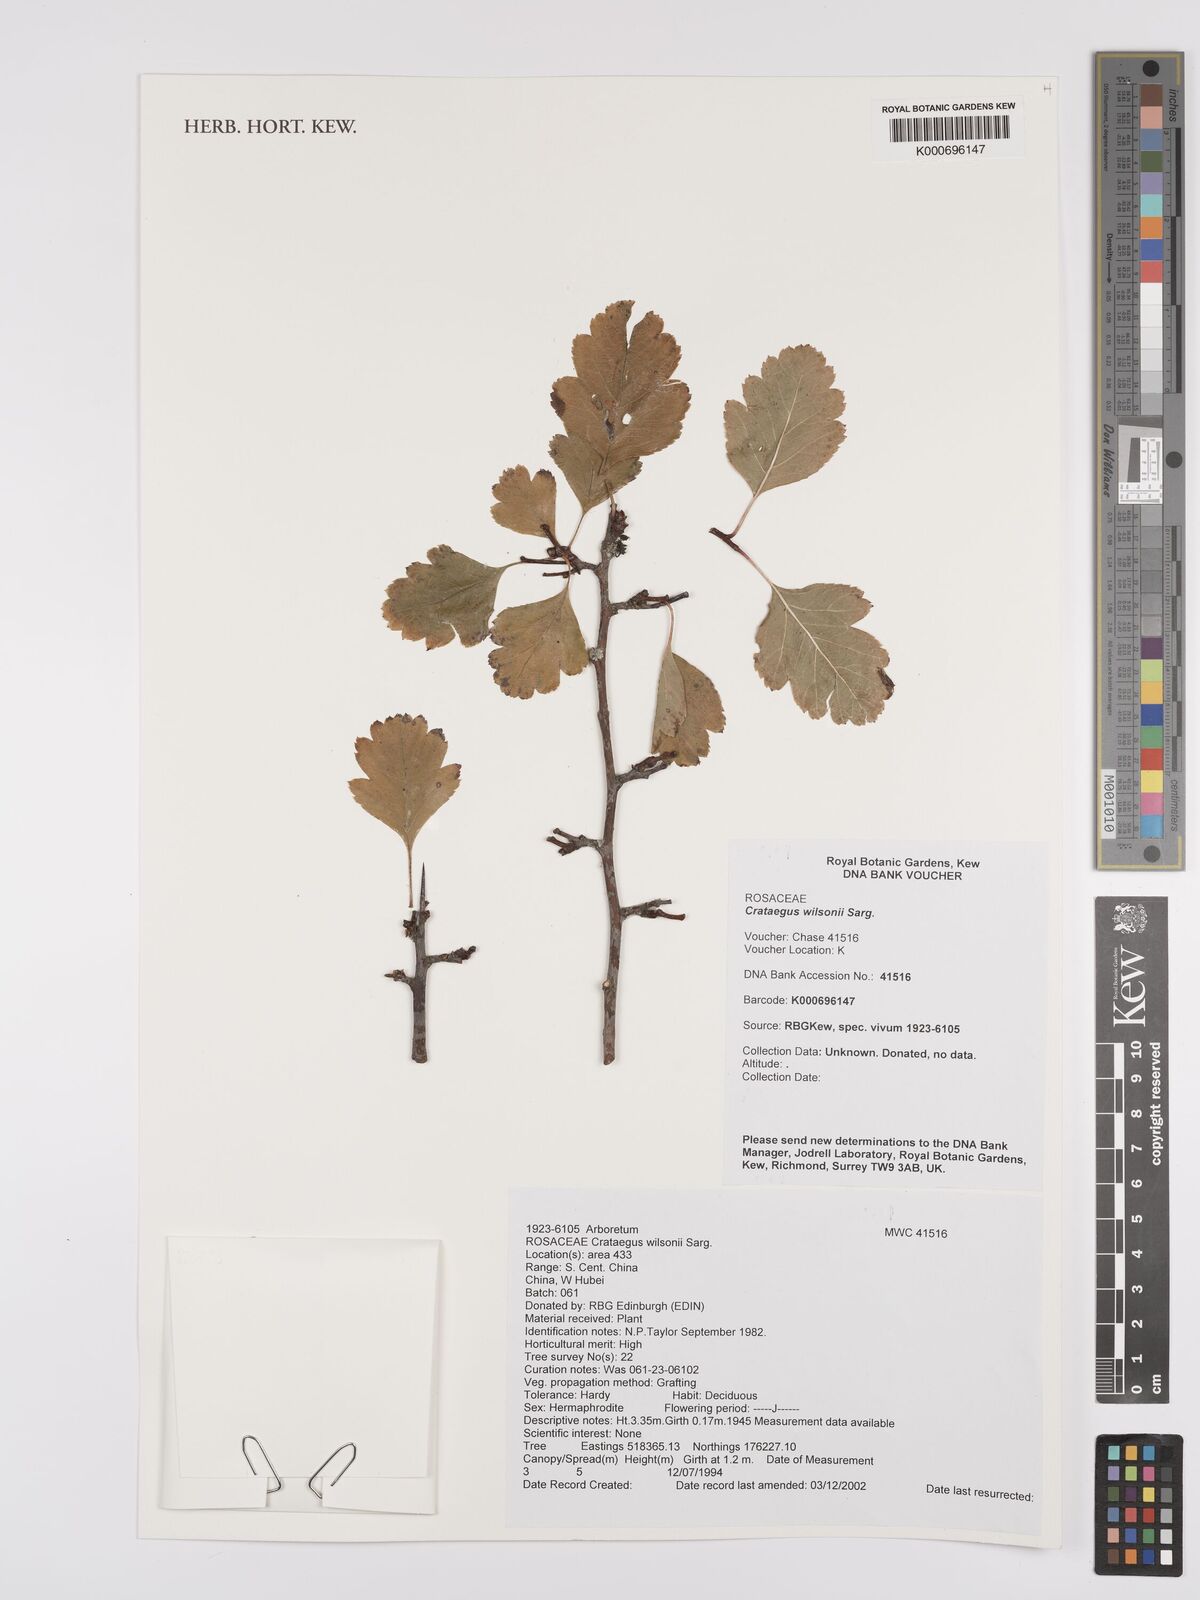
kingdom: Plantae
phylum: Tracheophyta
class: Magnoliopsida
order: Rosales
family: Rosaceae
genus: Crataegus
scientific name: Crataegus wilsonii
